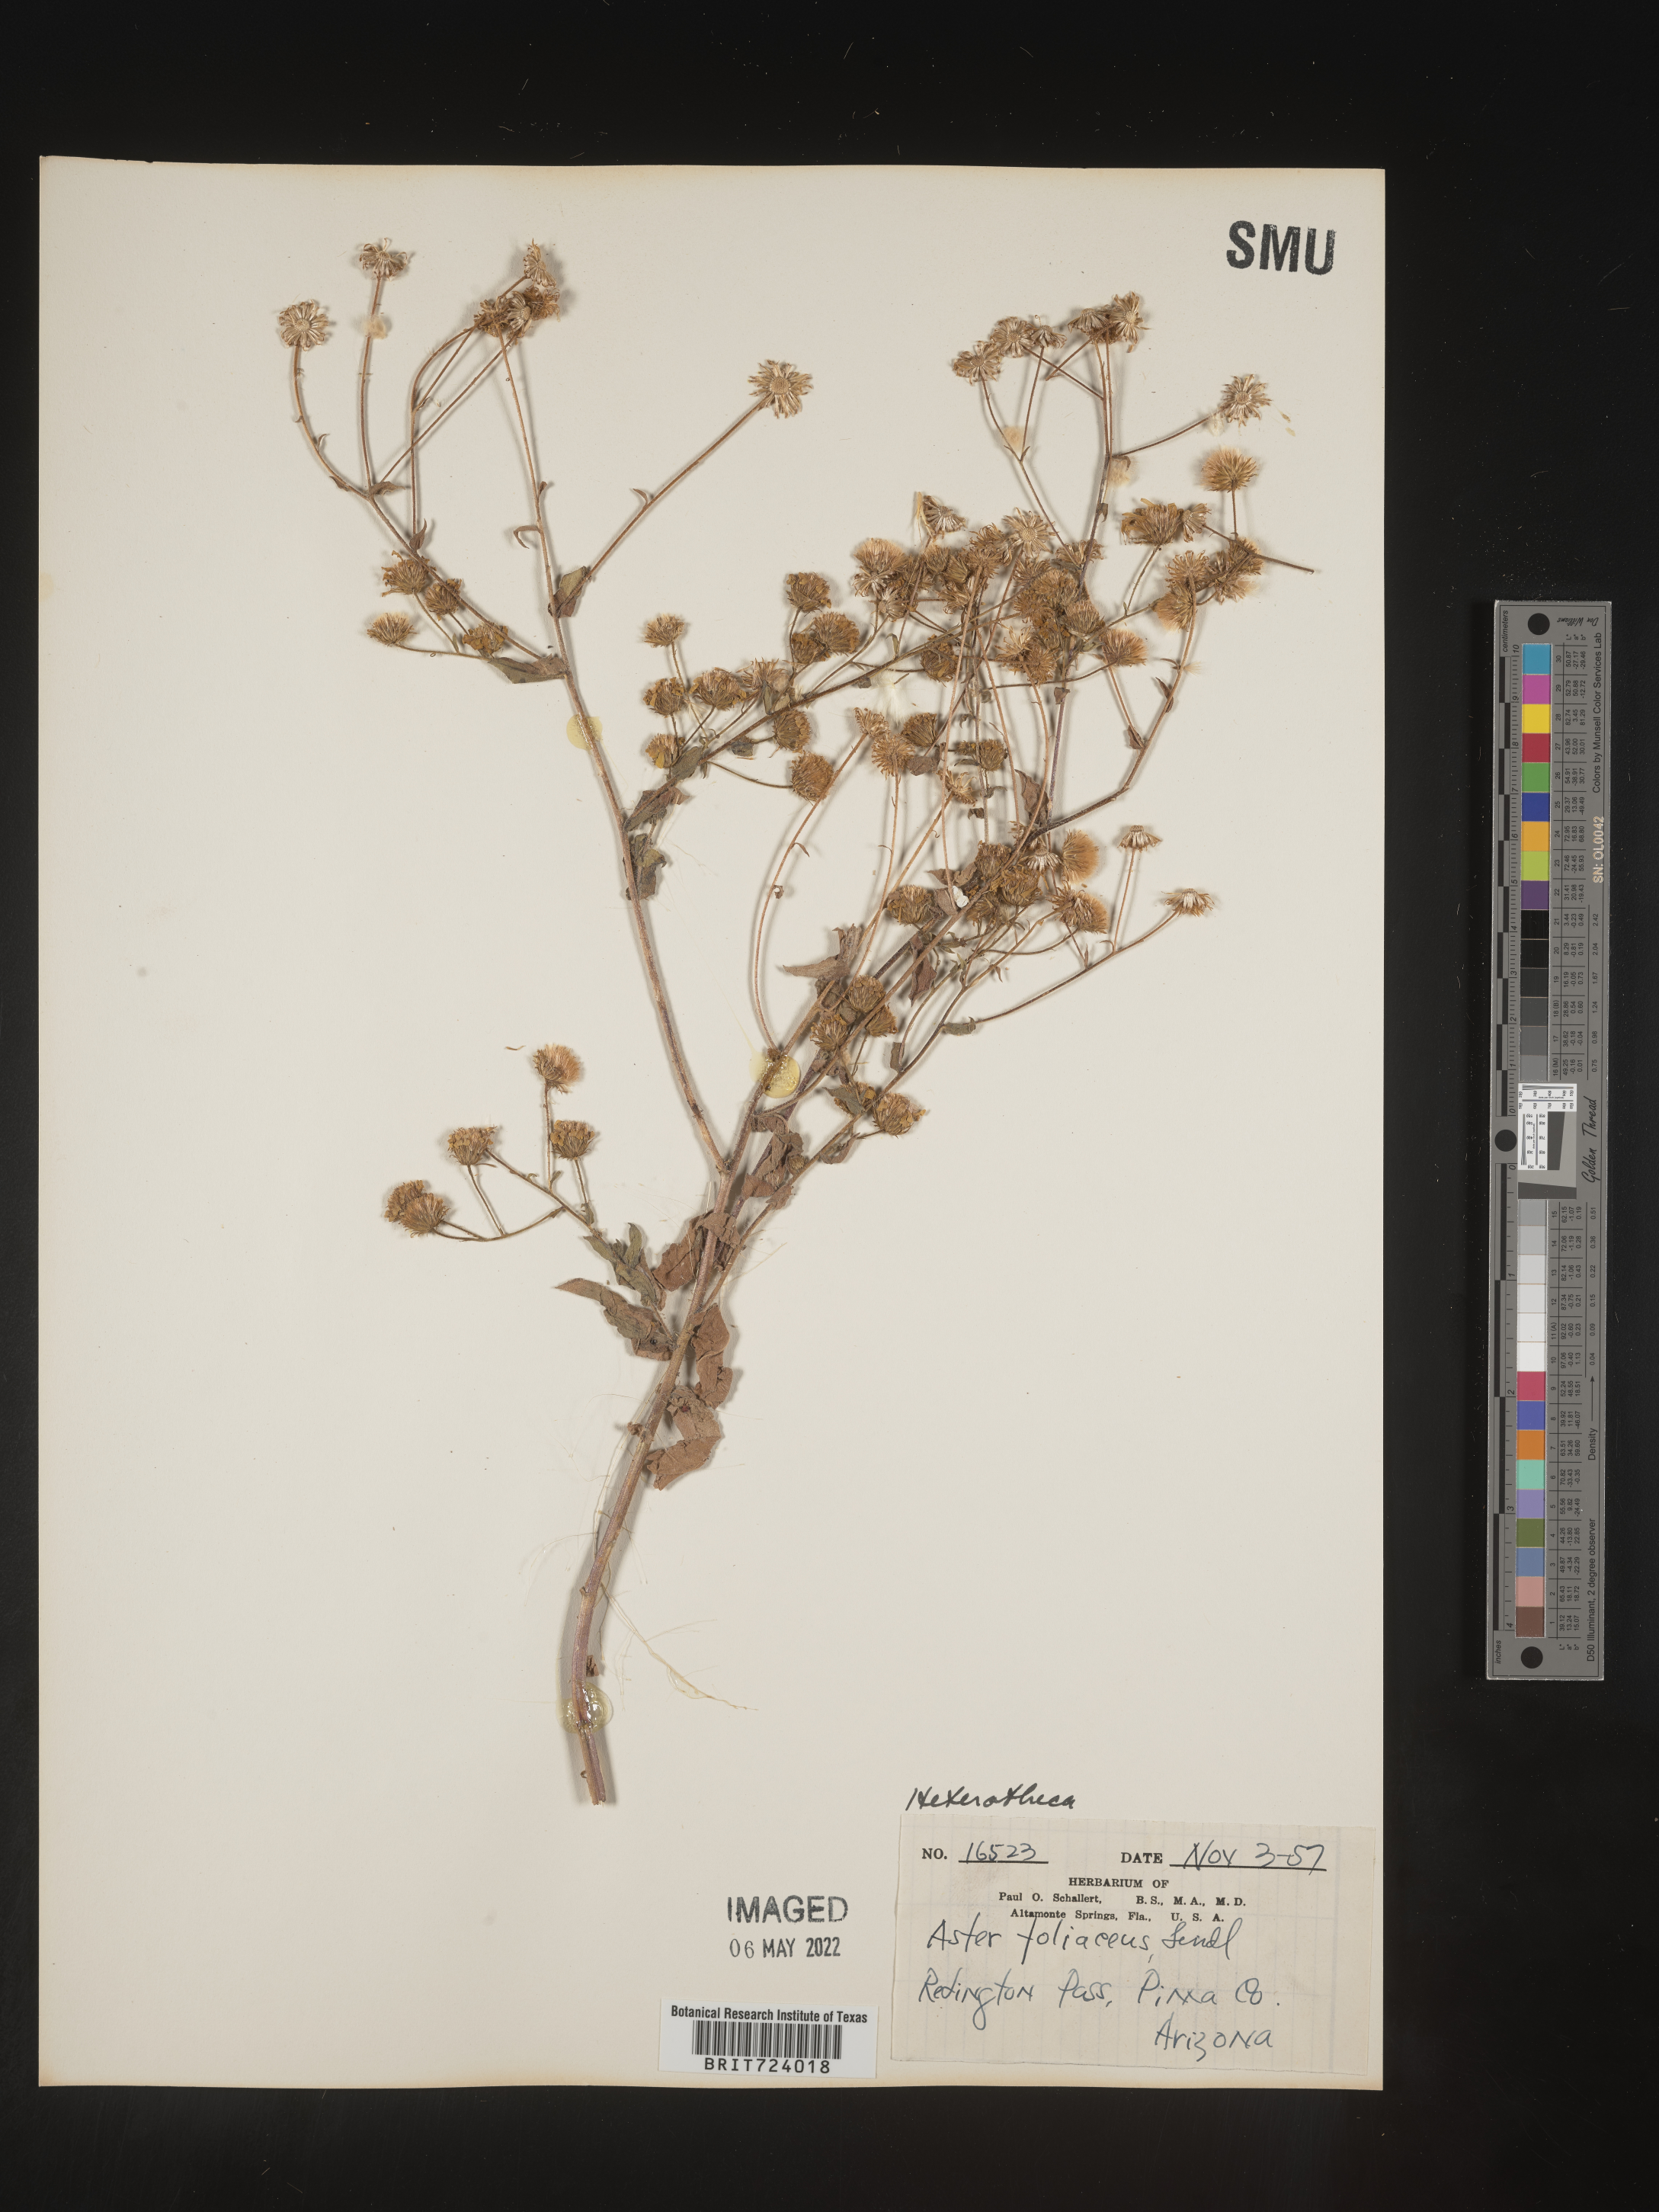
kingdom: Plantae
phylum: Tracheophyta
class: Magnoliopsida
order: Asterales
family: Asteraceae
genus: Heterotheca
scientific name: Heterotheca subaxillaris
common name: Camphorweed
